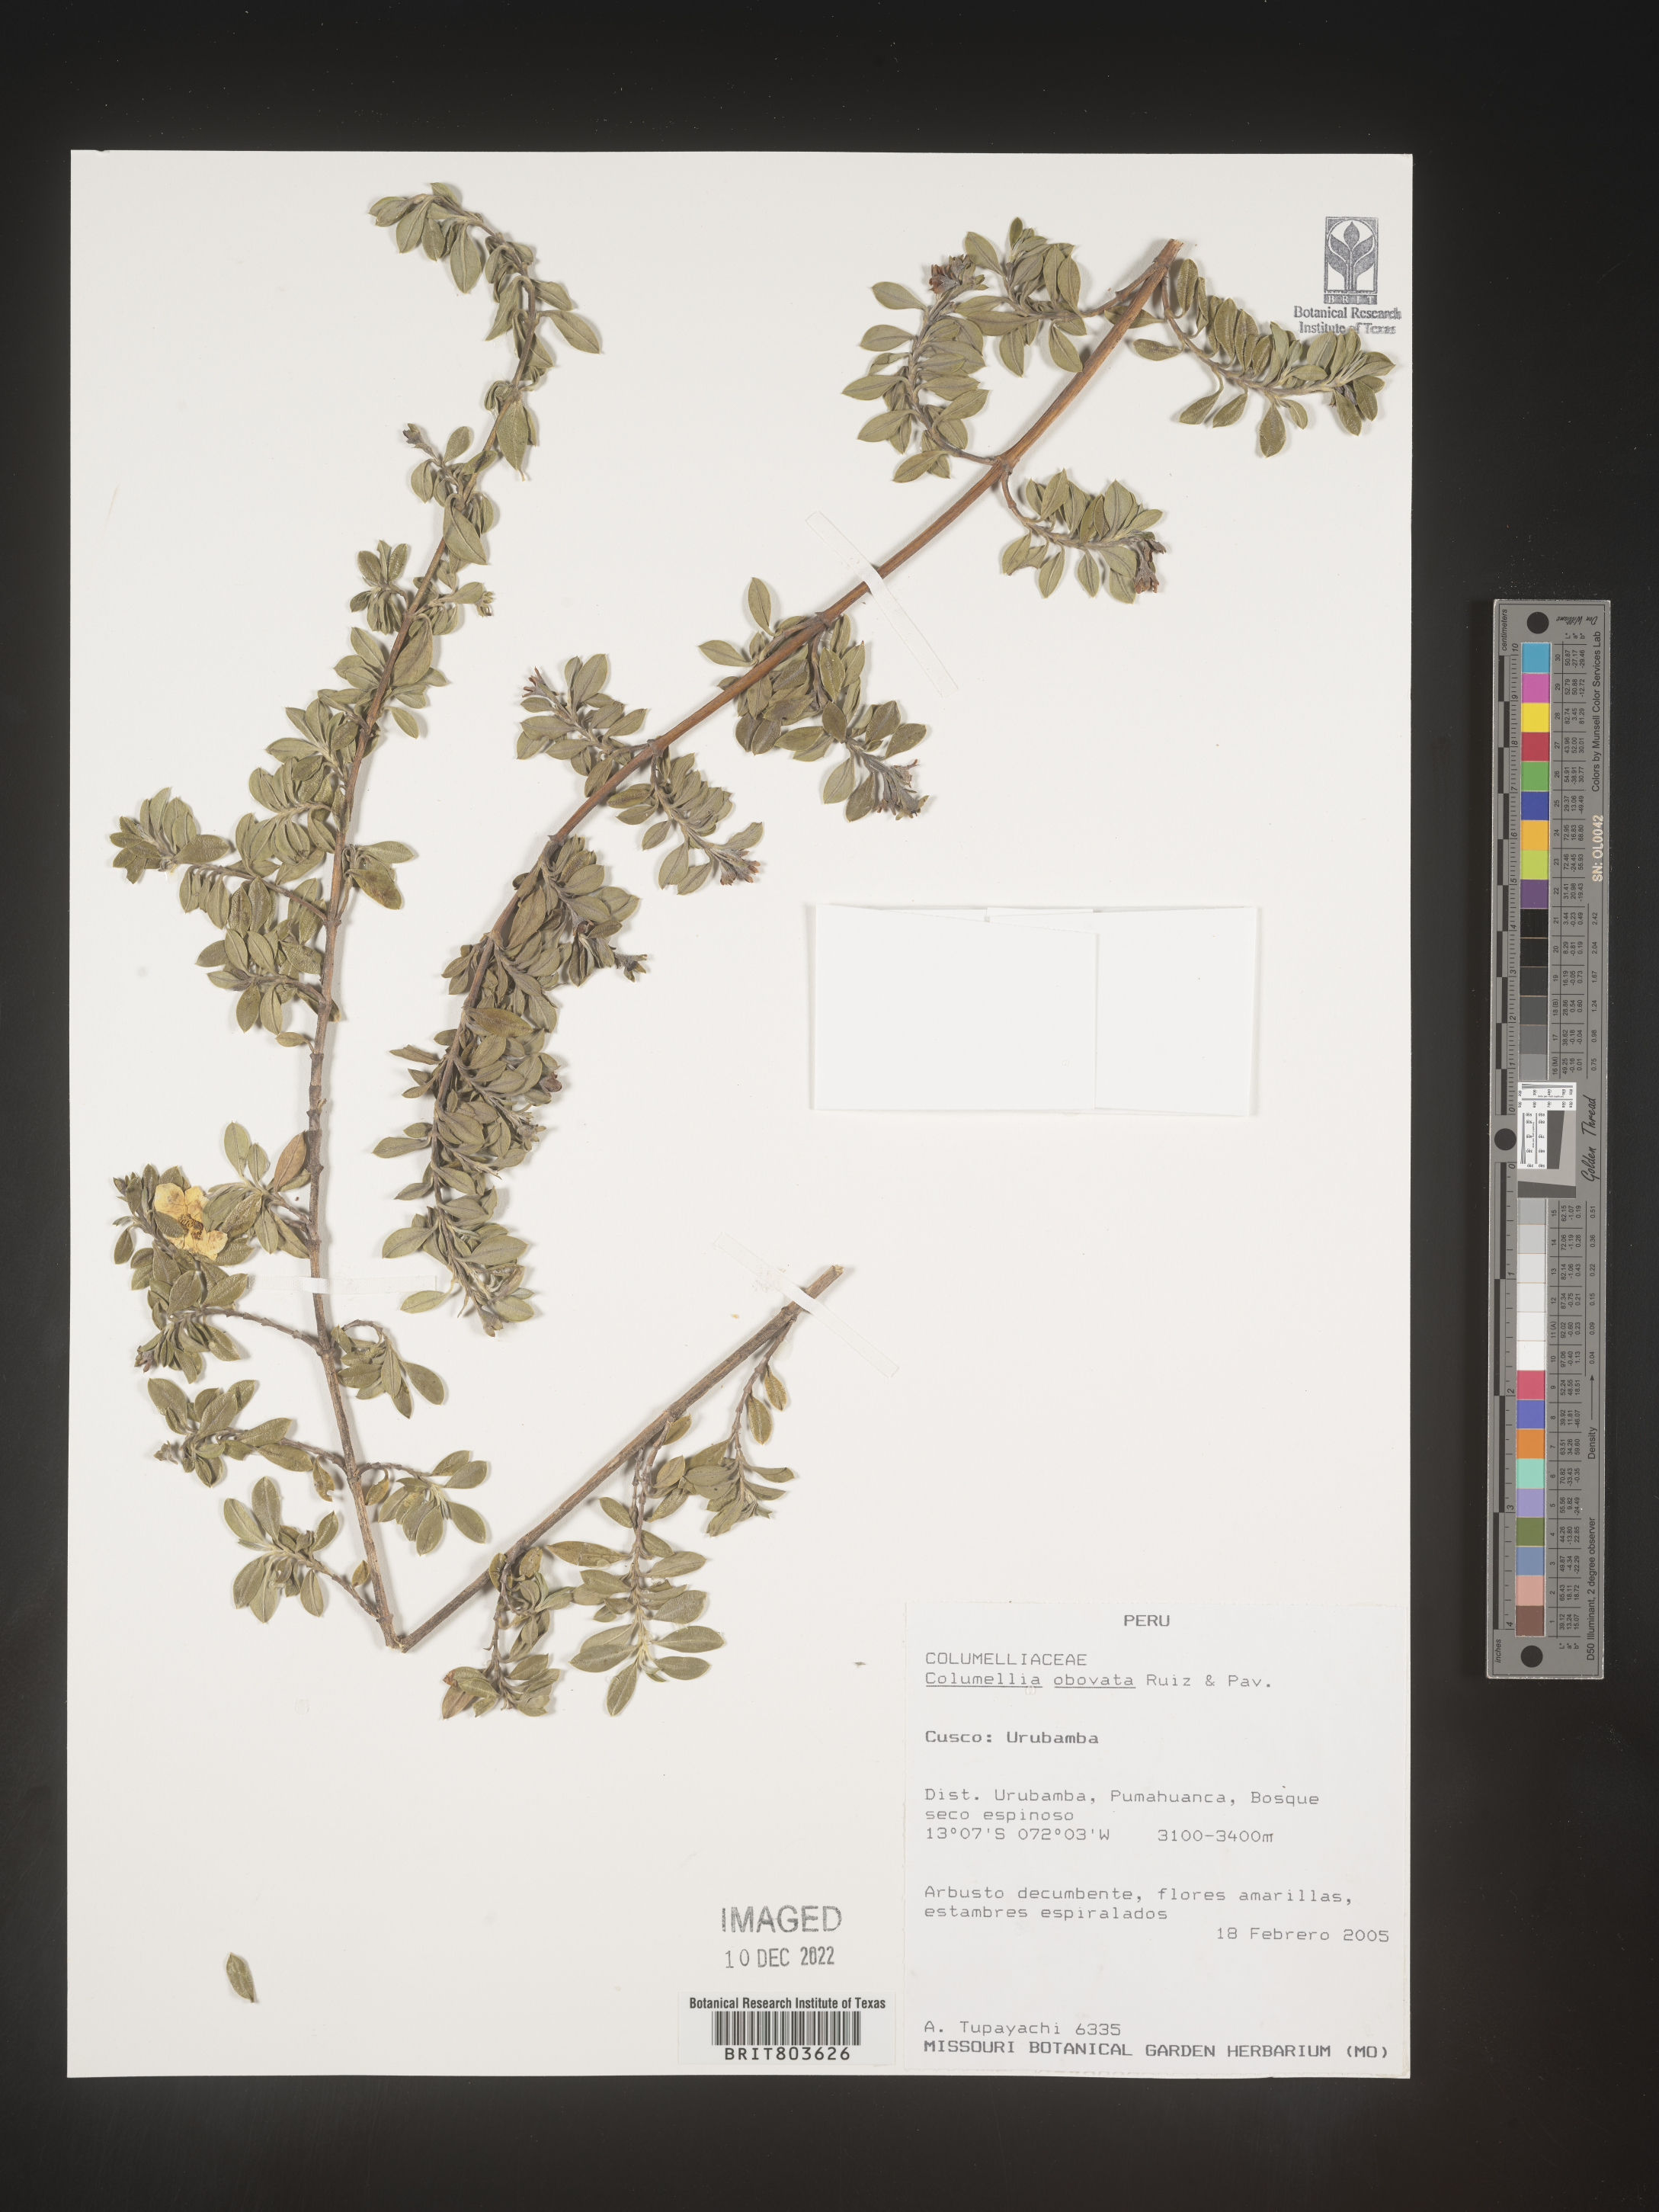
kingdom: Plantae
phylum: Tracheophyta
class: Magnoliopsida
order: Bruniales
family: Columelliaceae
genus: Columellia
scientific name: Columellia
